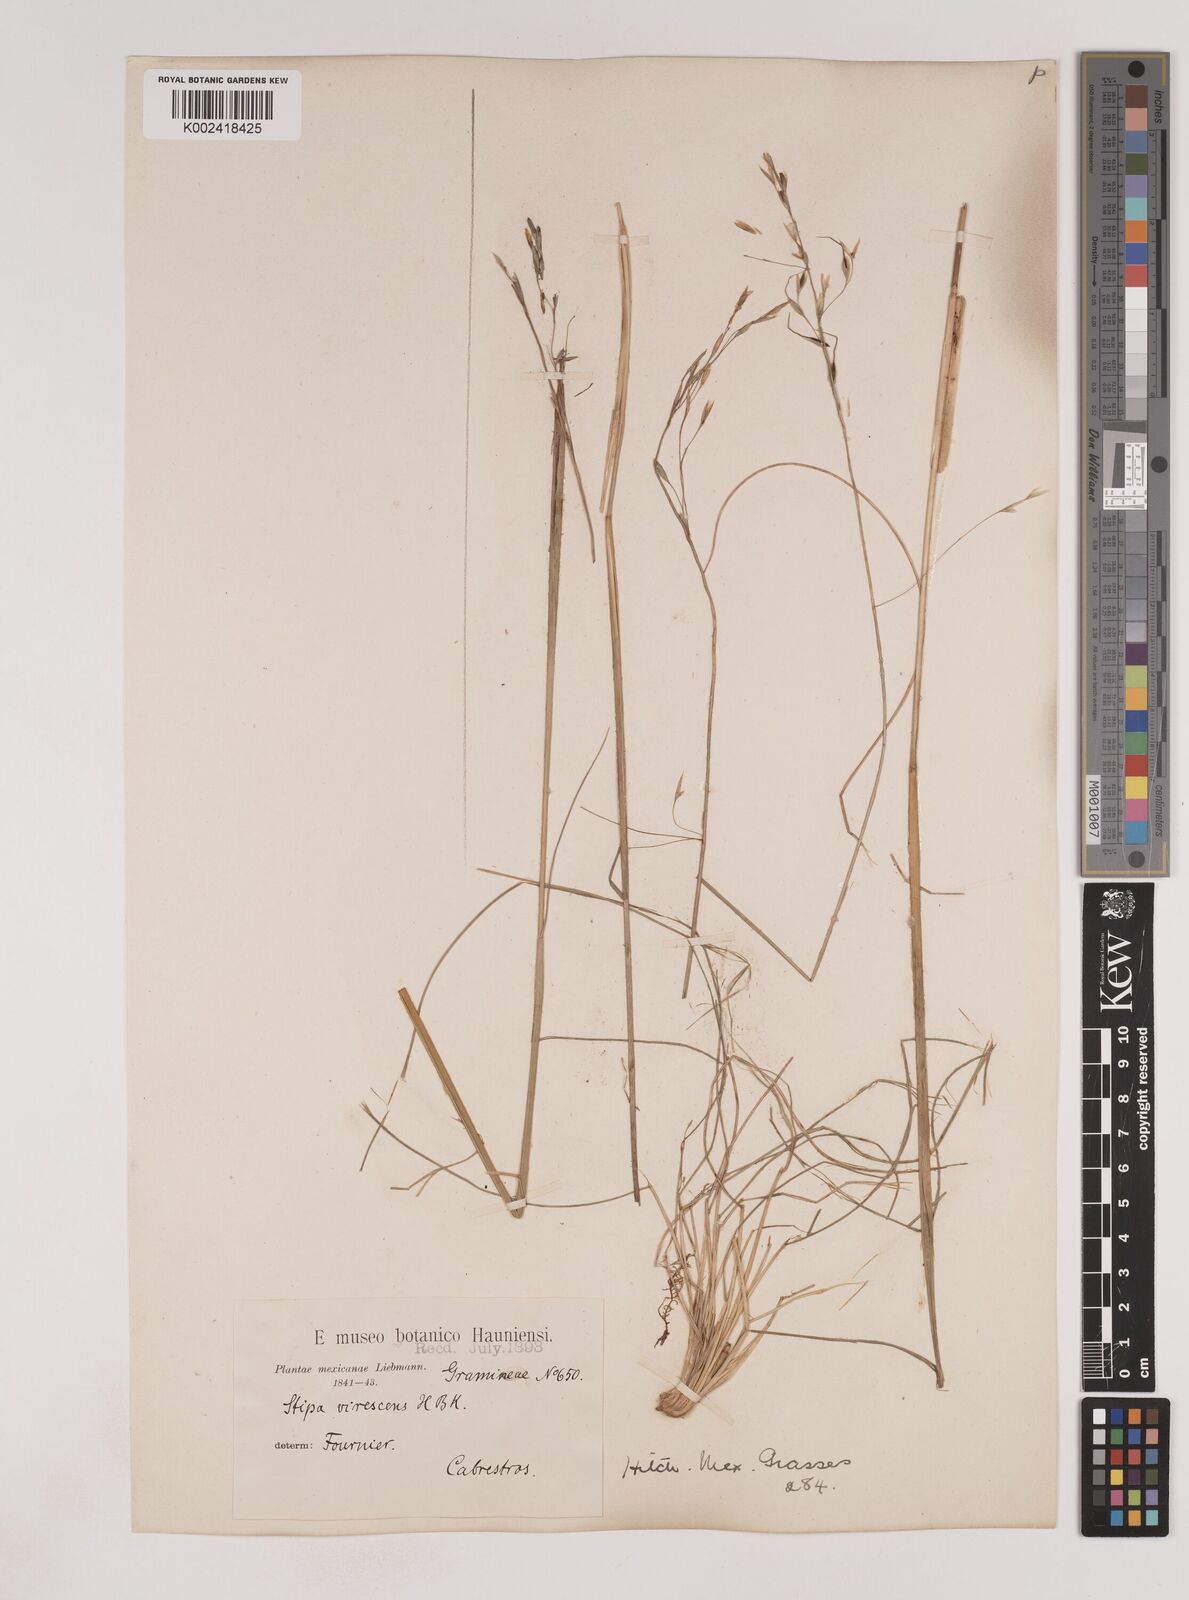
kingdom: Plantae
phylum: Tracheophyta
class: Liliopsida
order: Poales
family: Poaceae
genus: Piptochaetium
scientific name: Piptochaetium virescens
